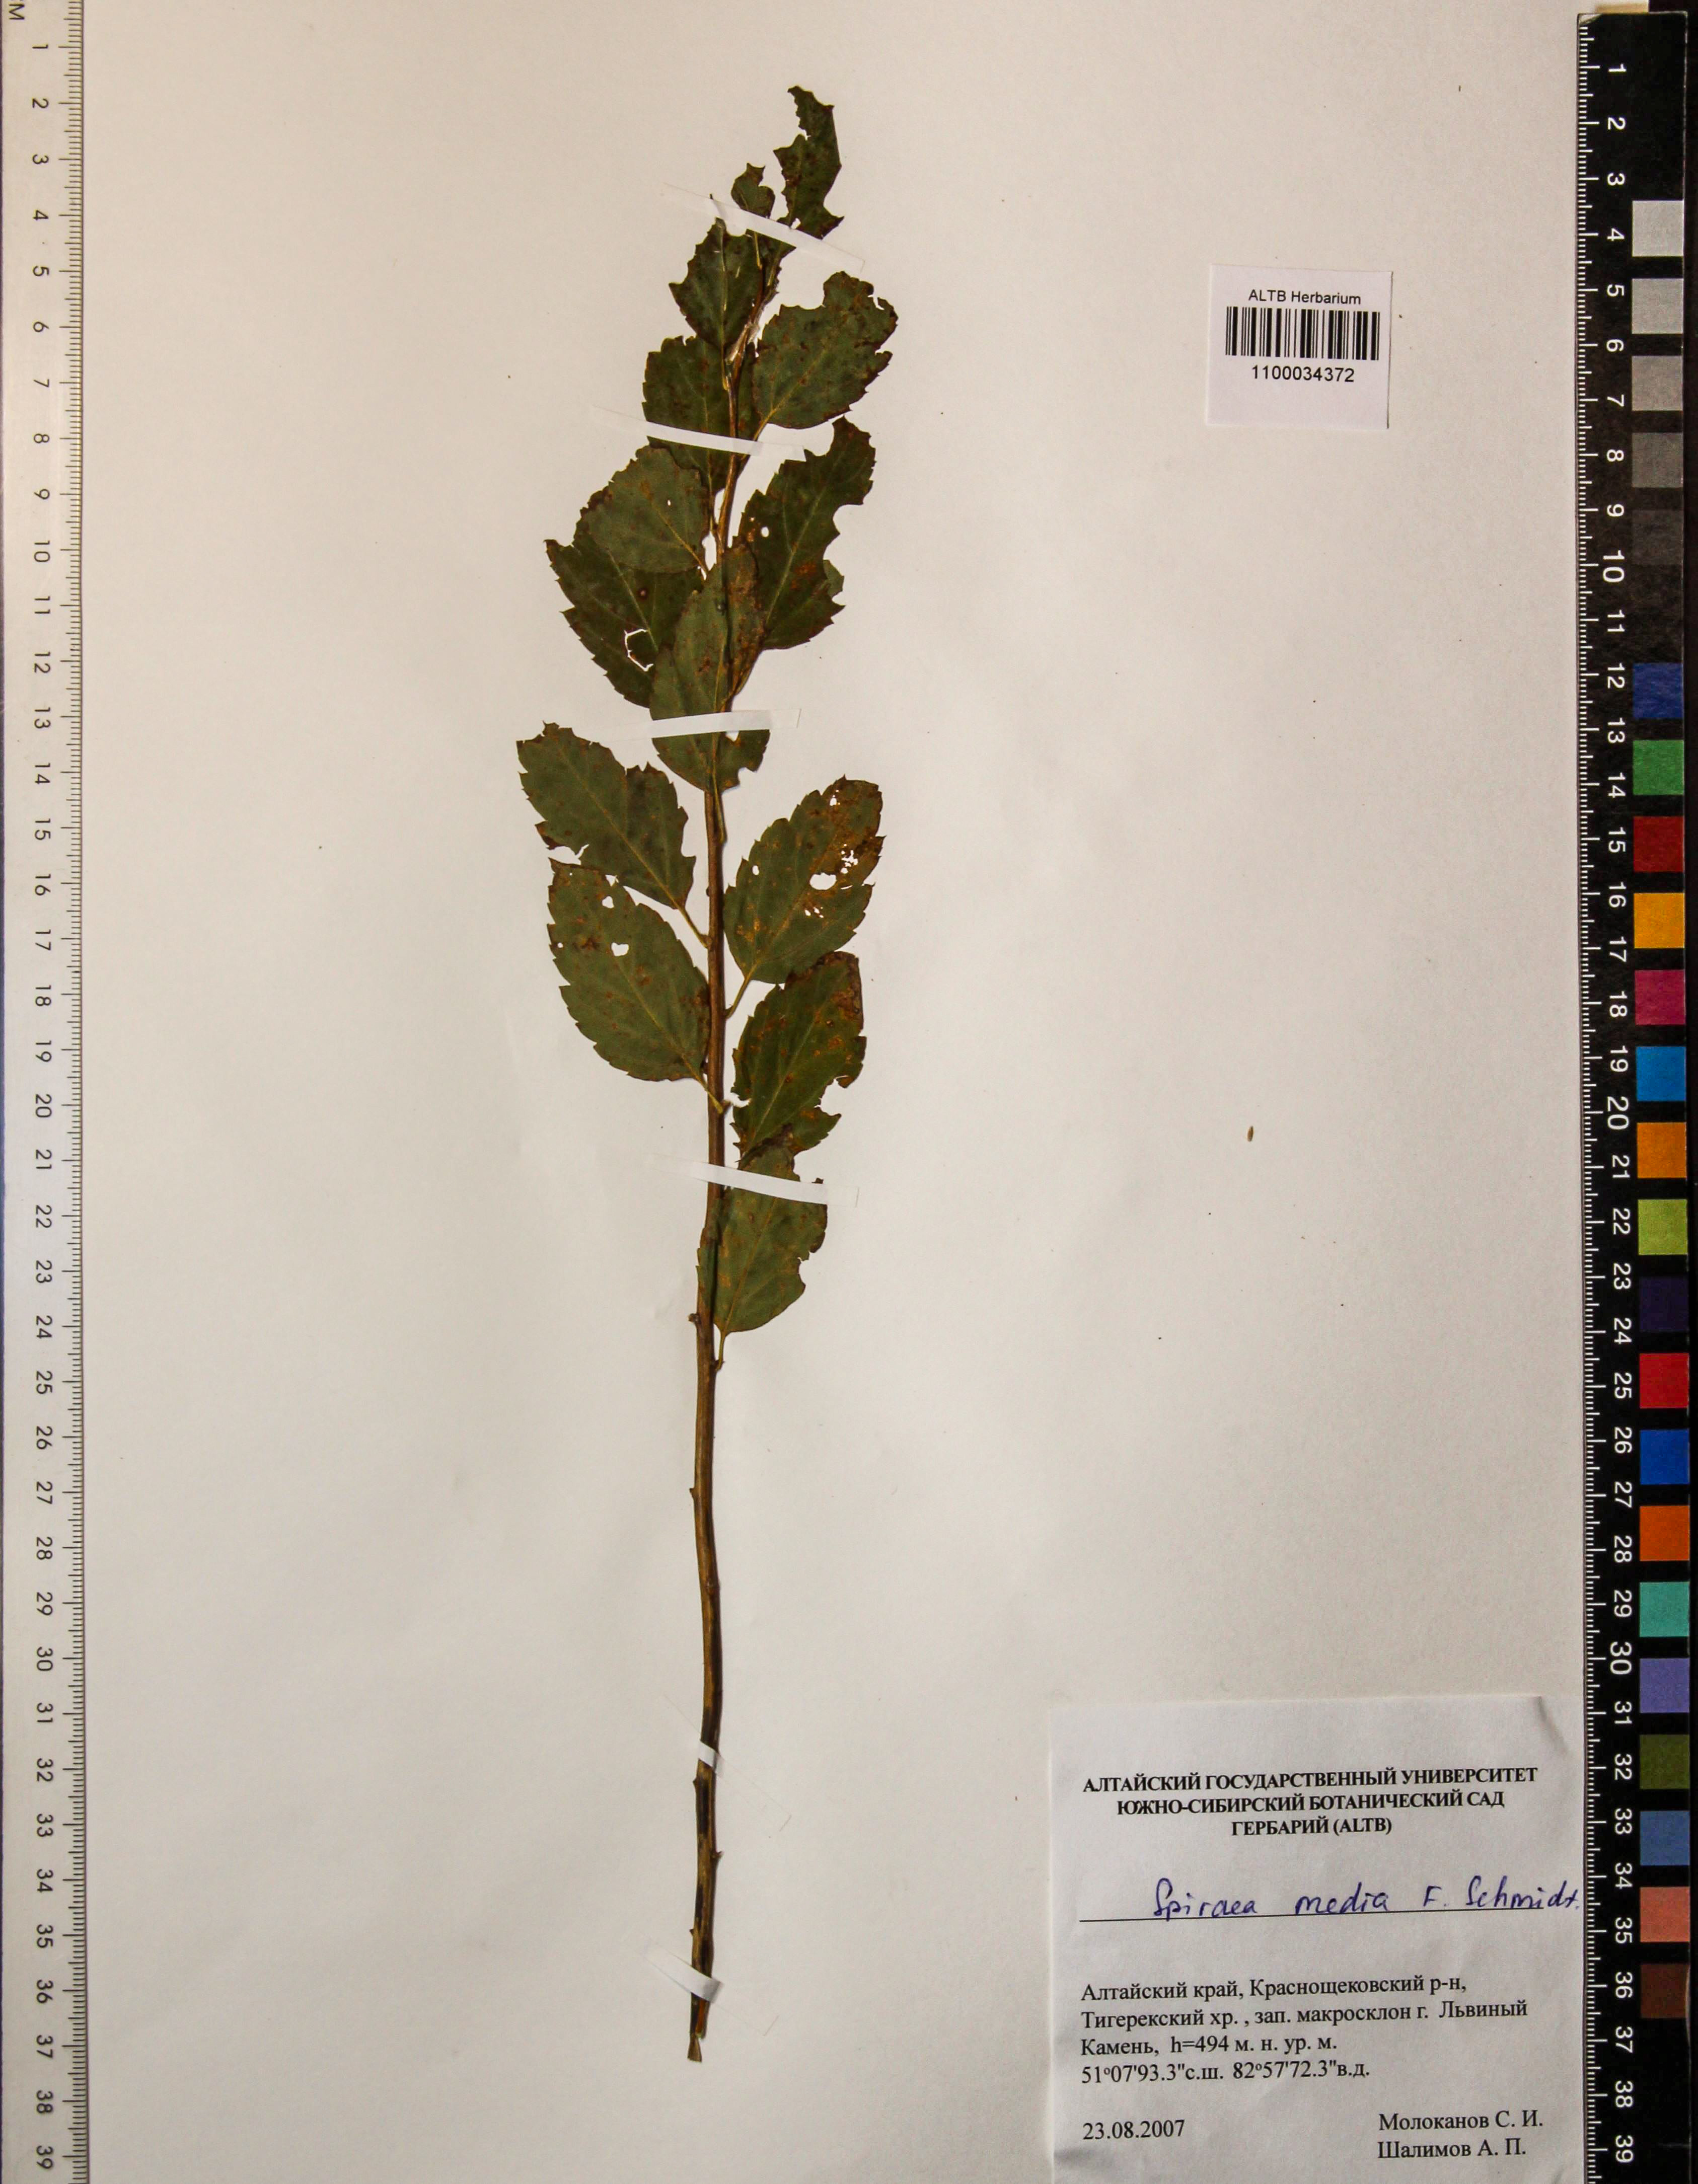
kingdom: Plantae
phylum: Tracheophyta
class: Magnoliopsida
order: Rosales
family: Rosaceae
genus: Spiraea
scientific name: Spiraea media
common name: Russian spiraea
